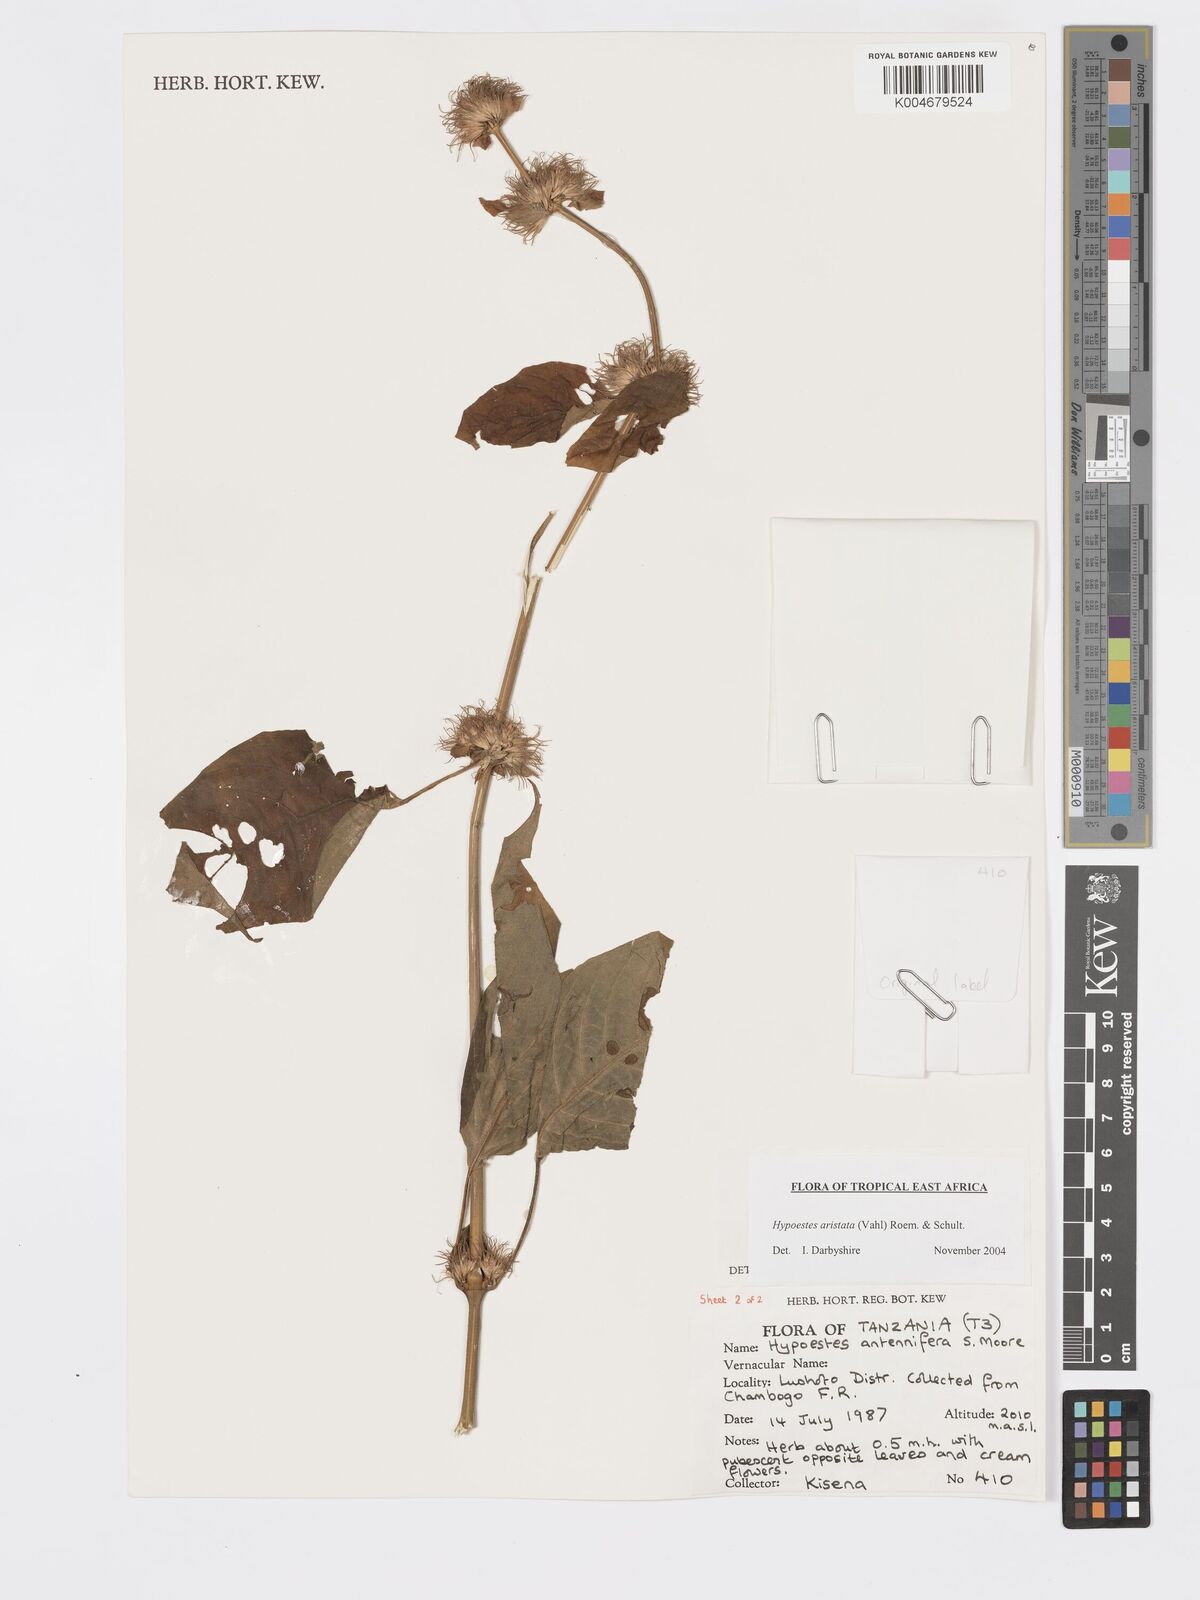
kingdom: Plantae
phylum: Tracheophyta
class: Magnoliopsida
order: Lamiales
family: Acanthaceae
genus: Hypoestes
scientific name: Hypoestes aristata
